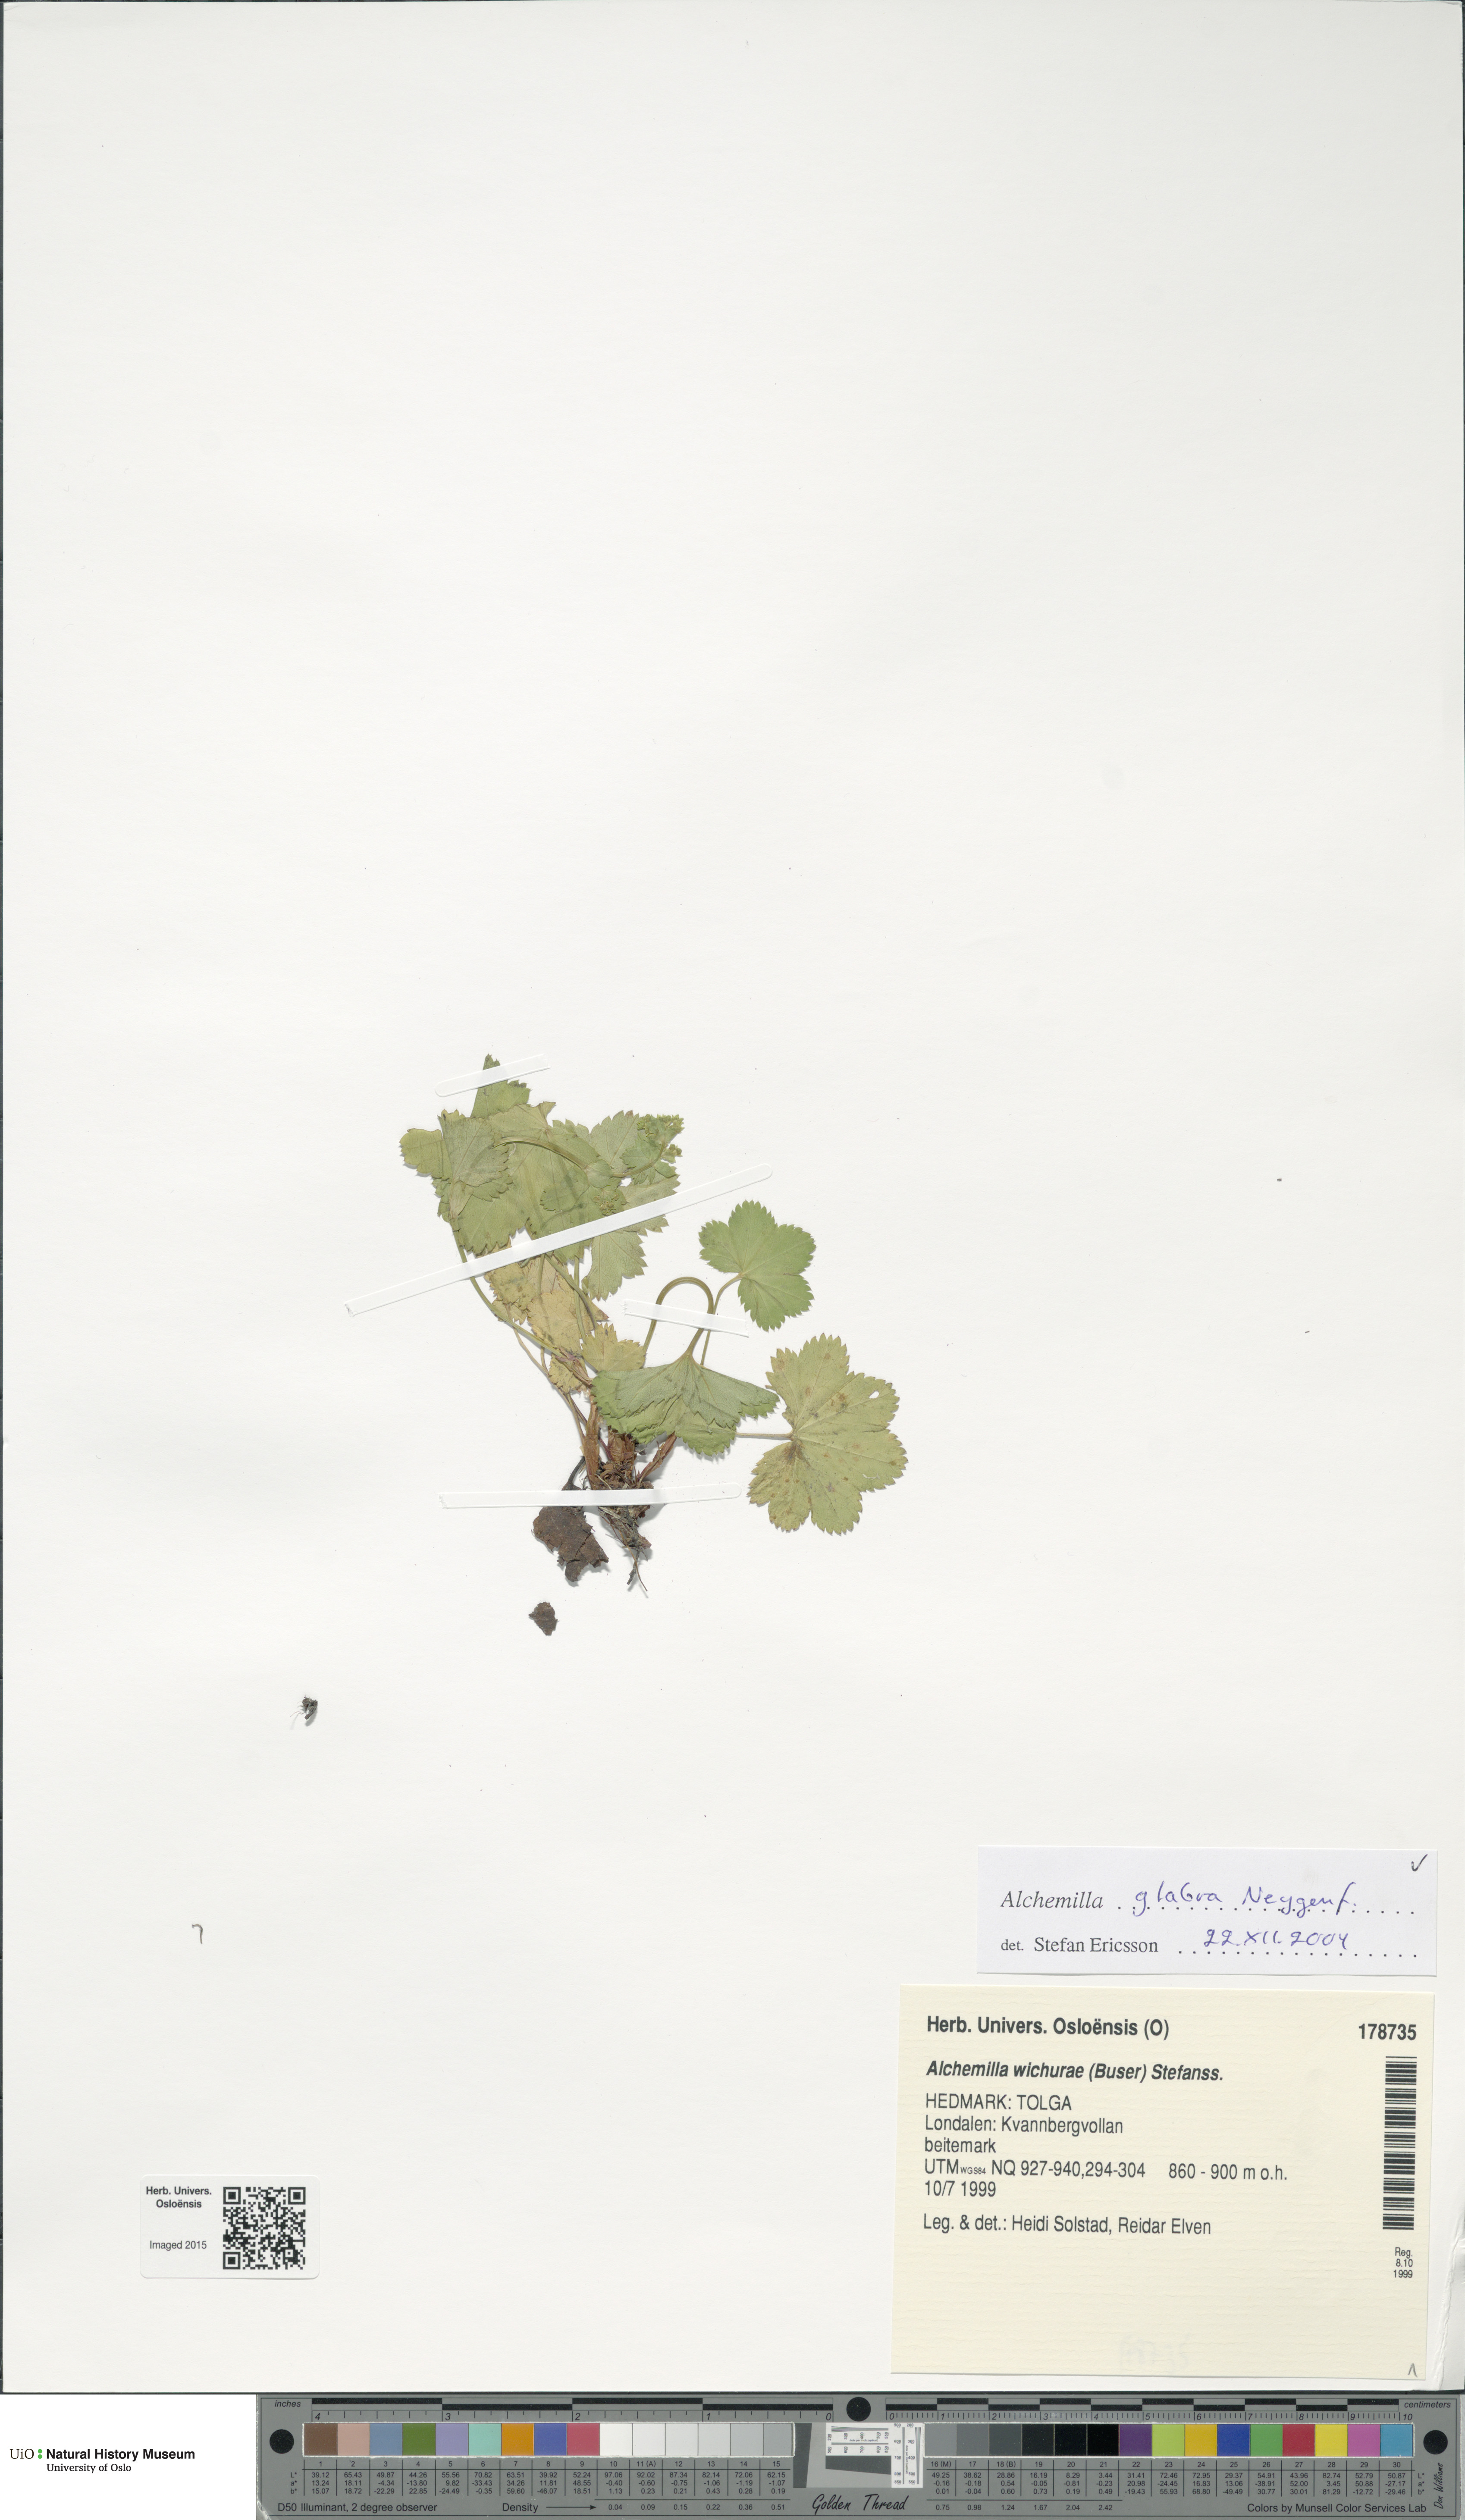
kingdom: Plantae
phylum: Tracheophyta
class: Magnoliopsida
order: Rosales
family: Rosaceae
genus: Alchemilla
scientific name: Alchemilla glabra
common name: Smooth lady's-mantle
